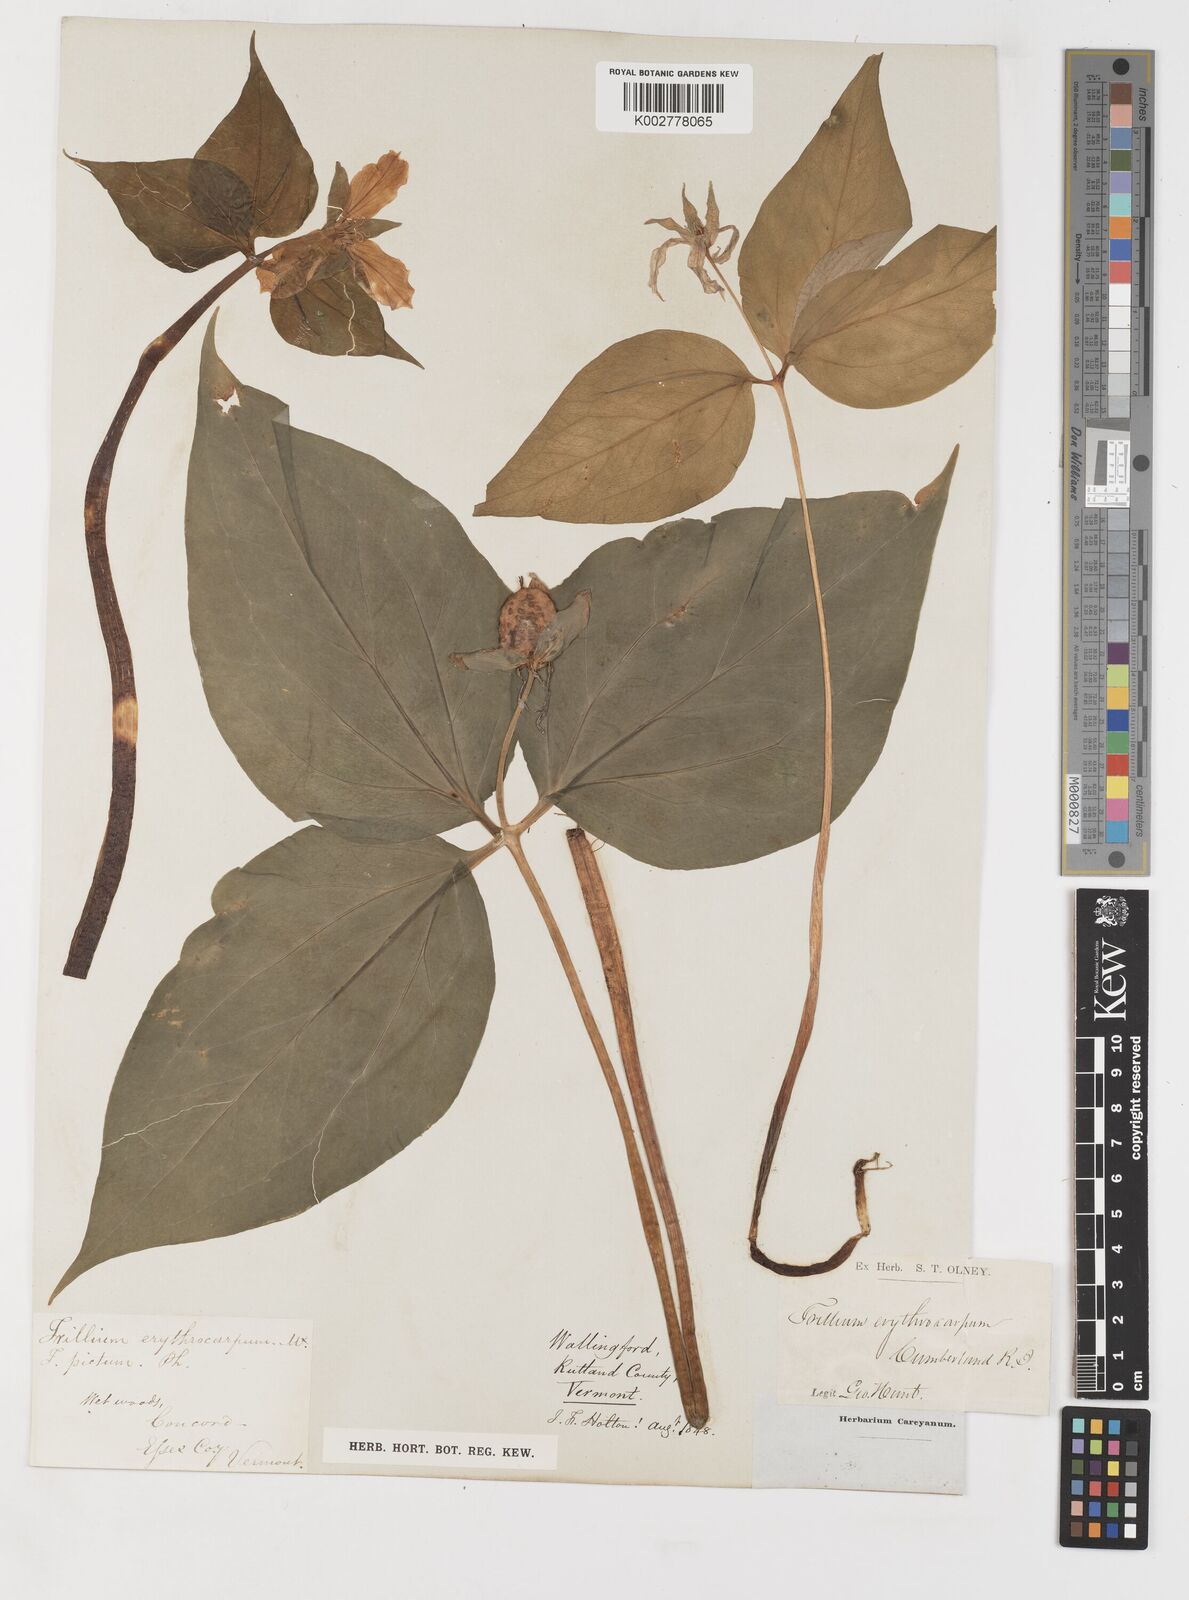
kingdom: Plantae
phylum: Tracheophyta
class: Liliopsida
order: Liliales
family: Melanthiaceae
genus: Trillium
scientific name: Trillium undulatum
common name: Paint trillium
